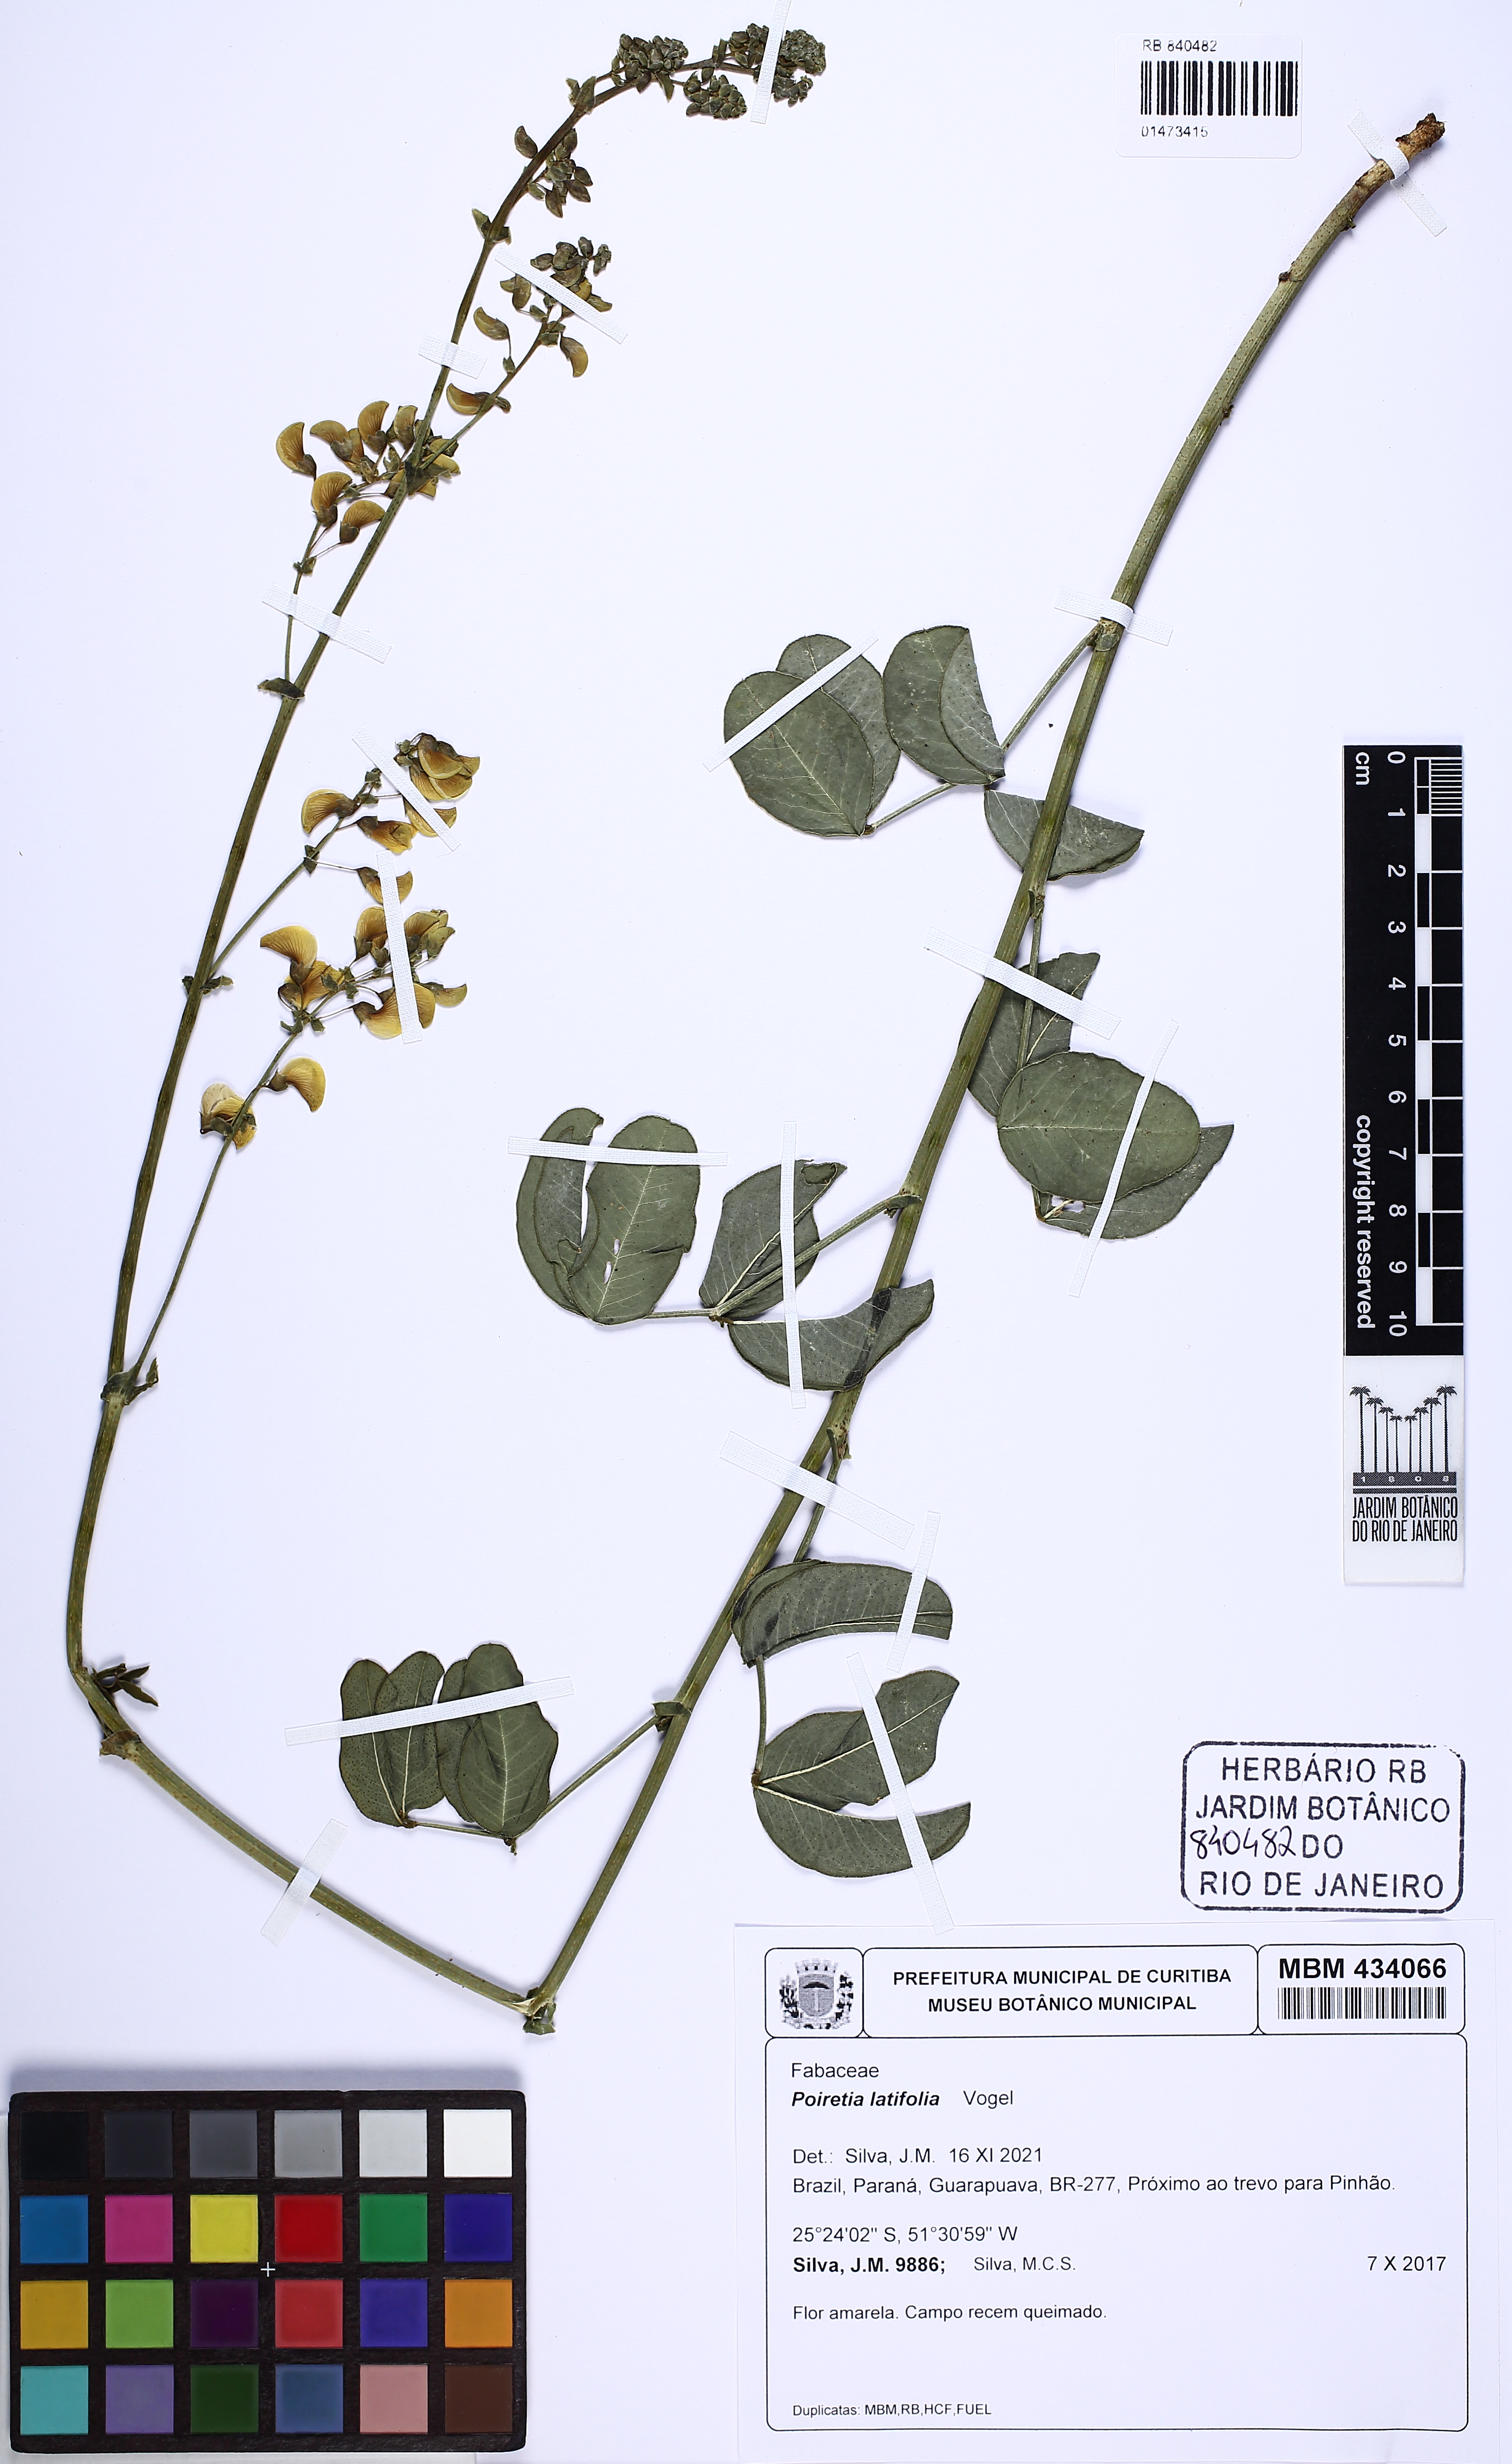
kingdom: Plantae
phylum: Tracheophyta
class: Magnoliopsida
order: Fabales
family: Fabaceae
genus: Poiretia
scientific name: Poiretia latifolia
